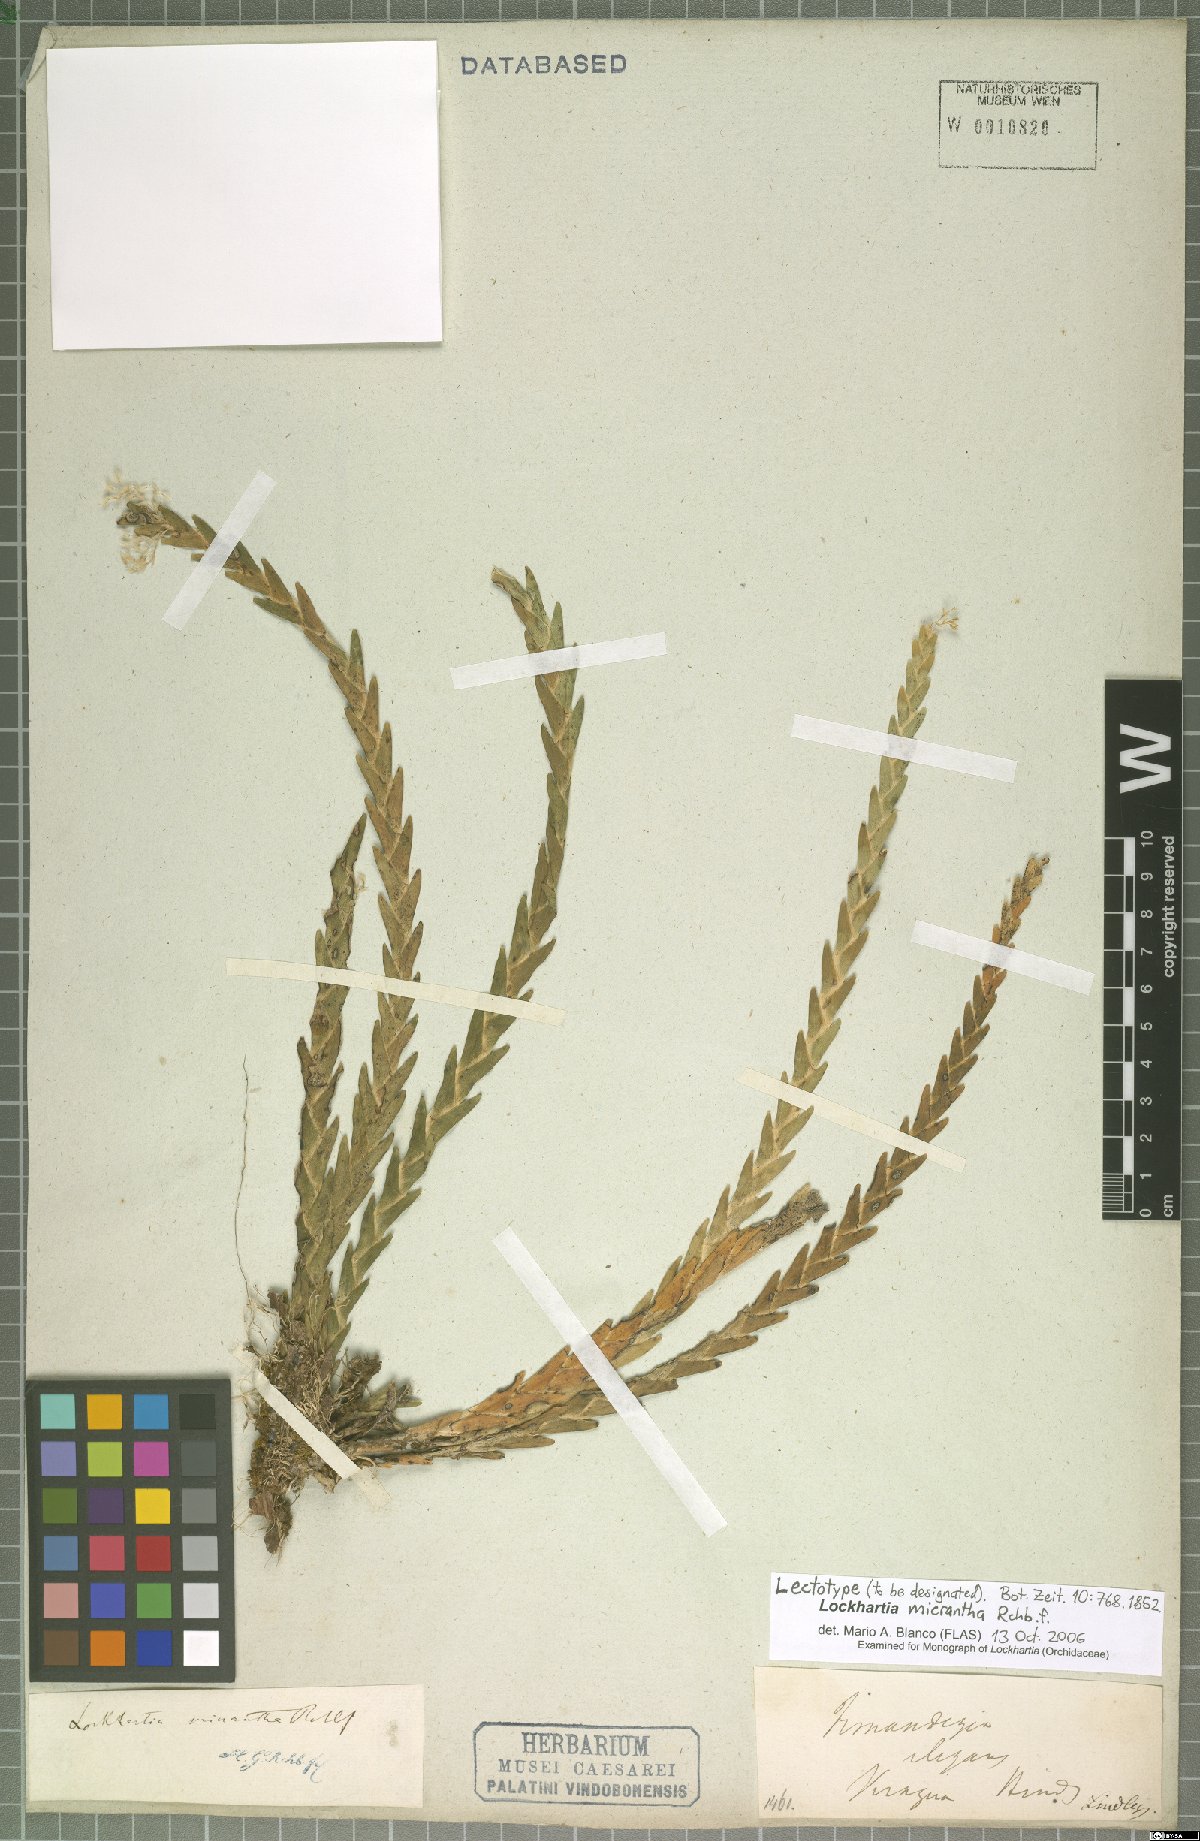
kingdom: Plantae
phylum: Tracheophyta
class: Liliopsida
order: Asparagales
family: Orchidaceae
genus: Lockhartia
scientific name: Lockhartia micrantha
